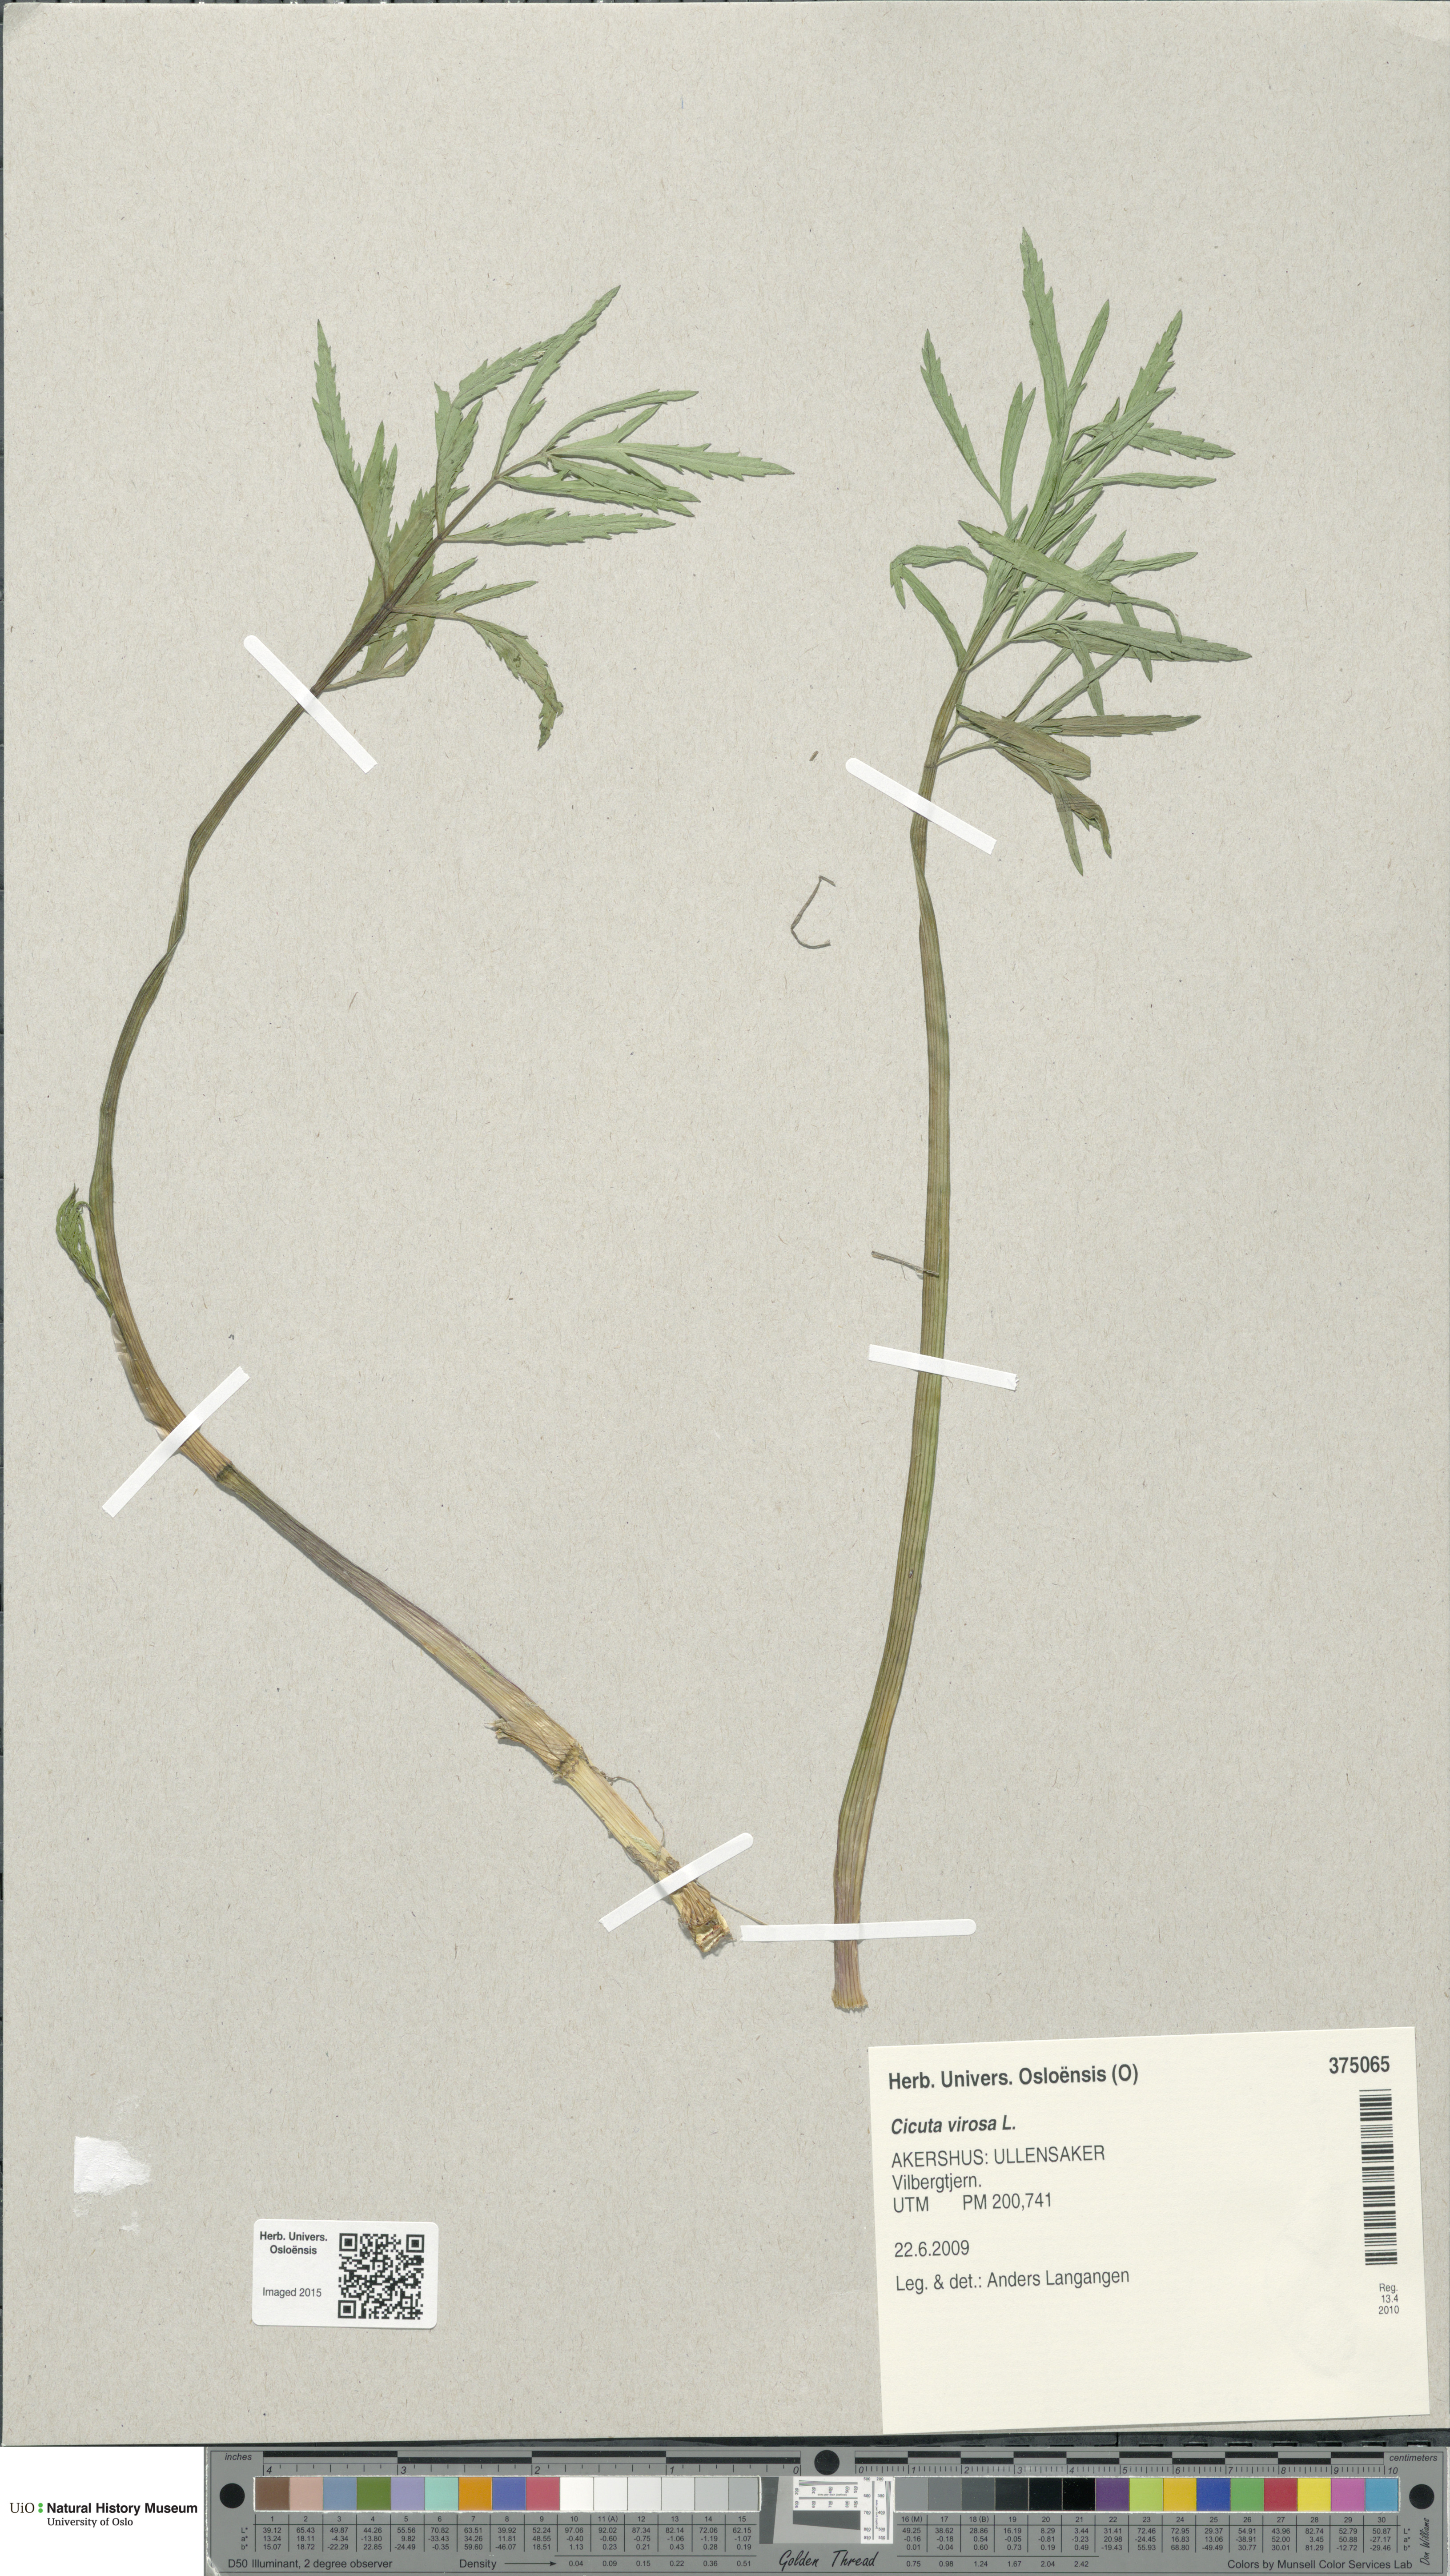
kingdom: Plantae
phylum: Tracheophyta
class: Magnoliopsida
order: Apiales
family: Apiaceae
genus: Cicuta
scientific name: Cicuta virosa
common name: Cowbane
